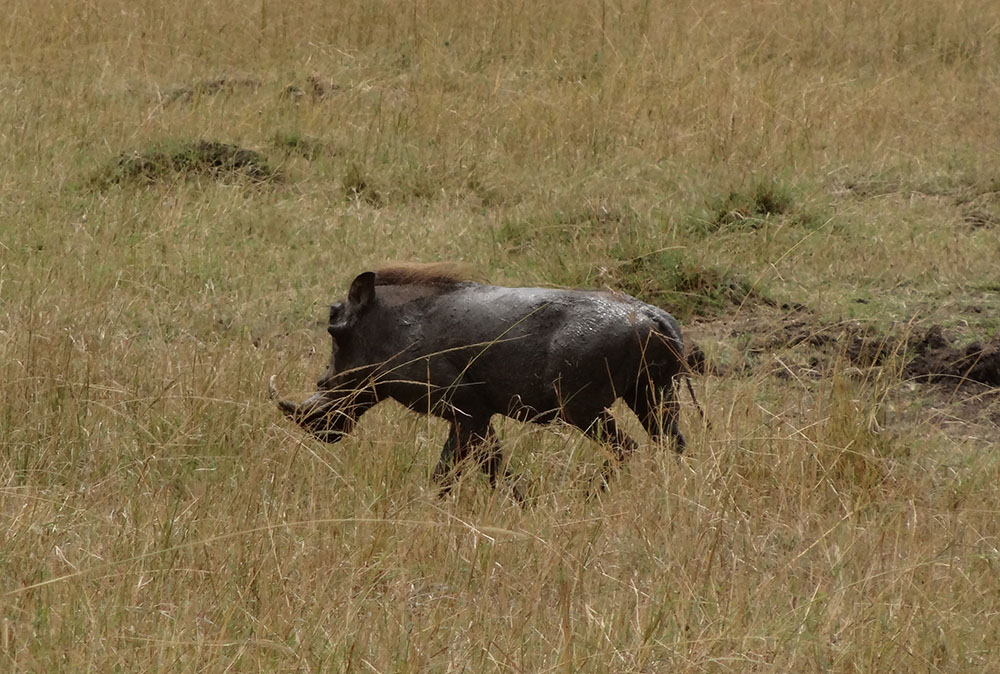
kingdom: Animalia
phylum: Chordata
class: Mammalia
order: Artiodactyla
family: Suidae
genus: Phacochoerus
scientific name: Phacochoerus africanus
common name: Common warthog
